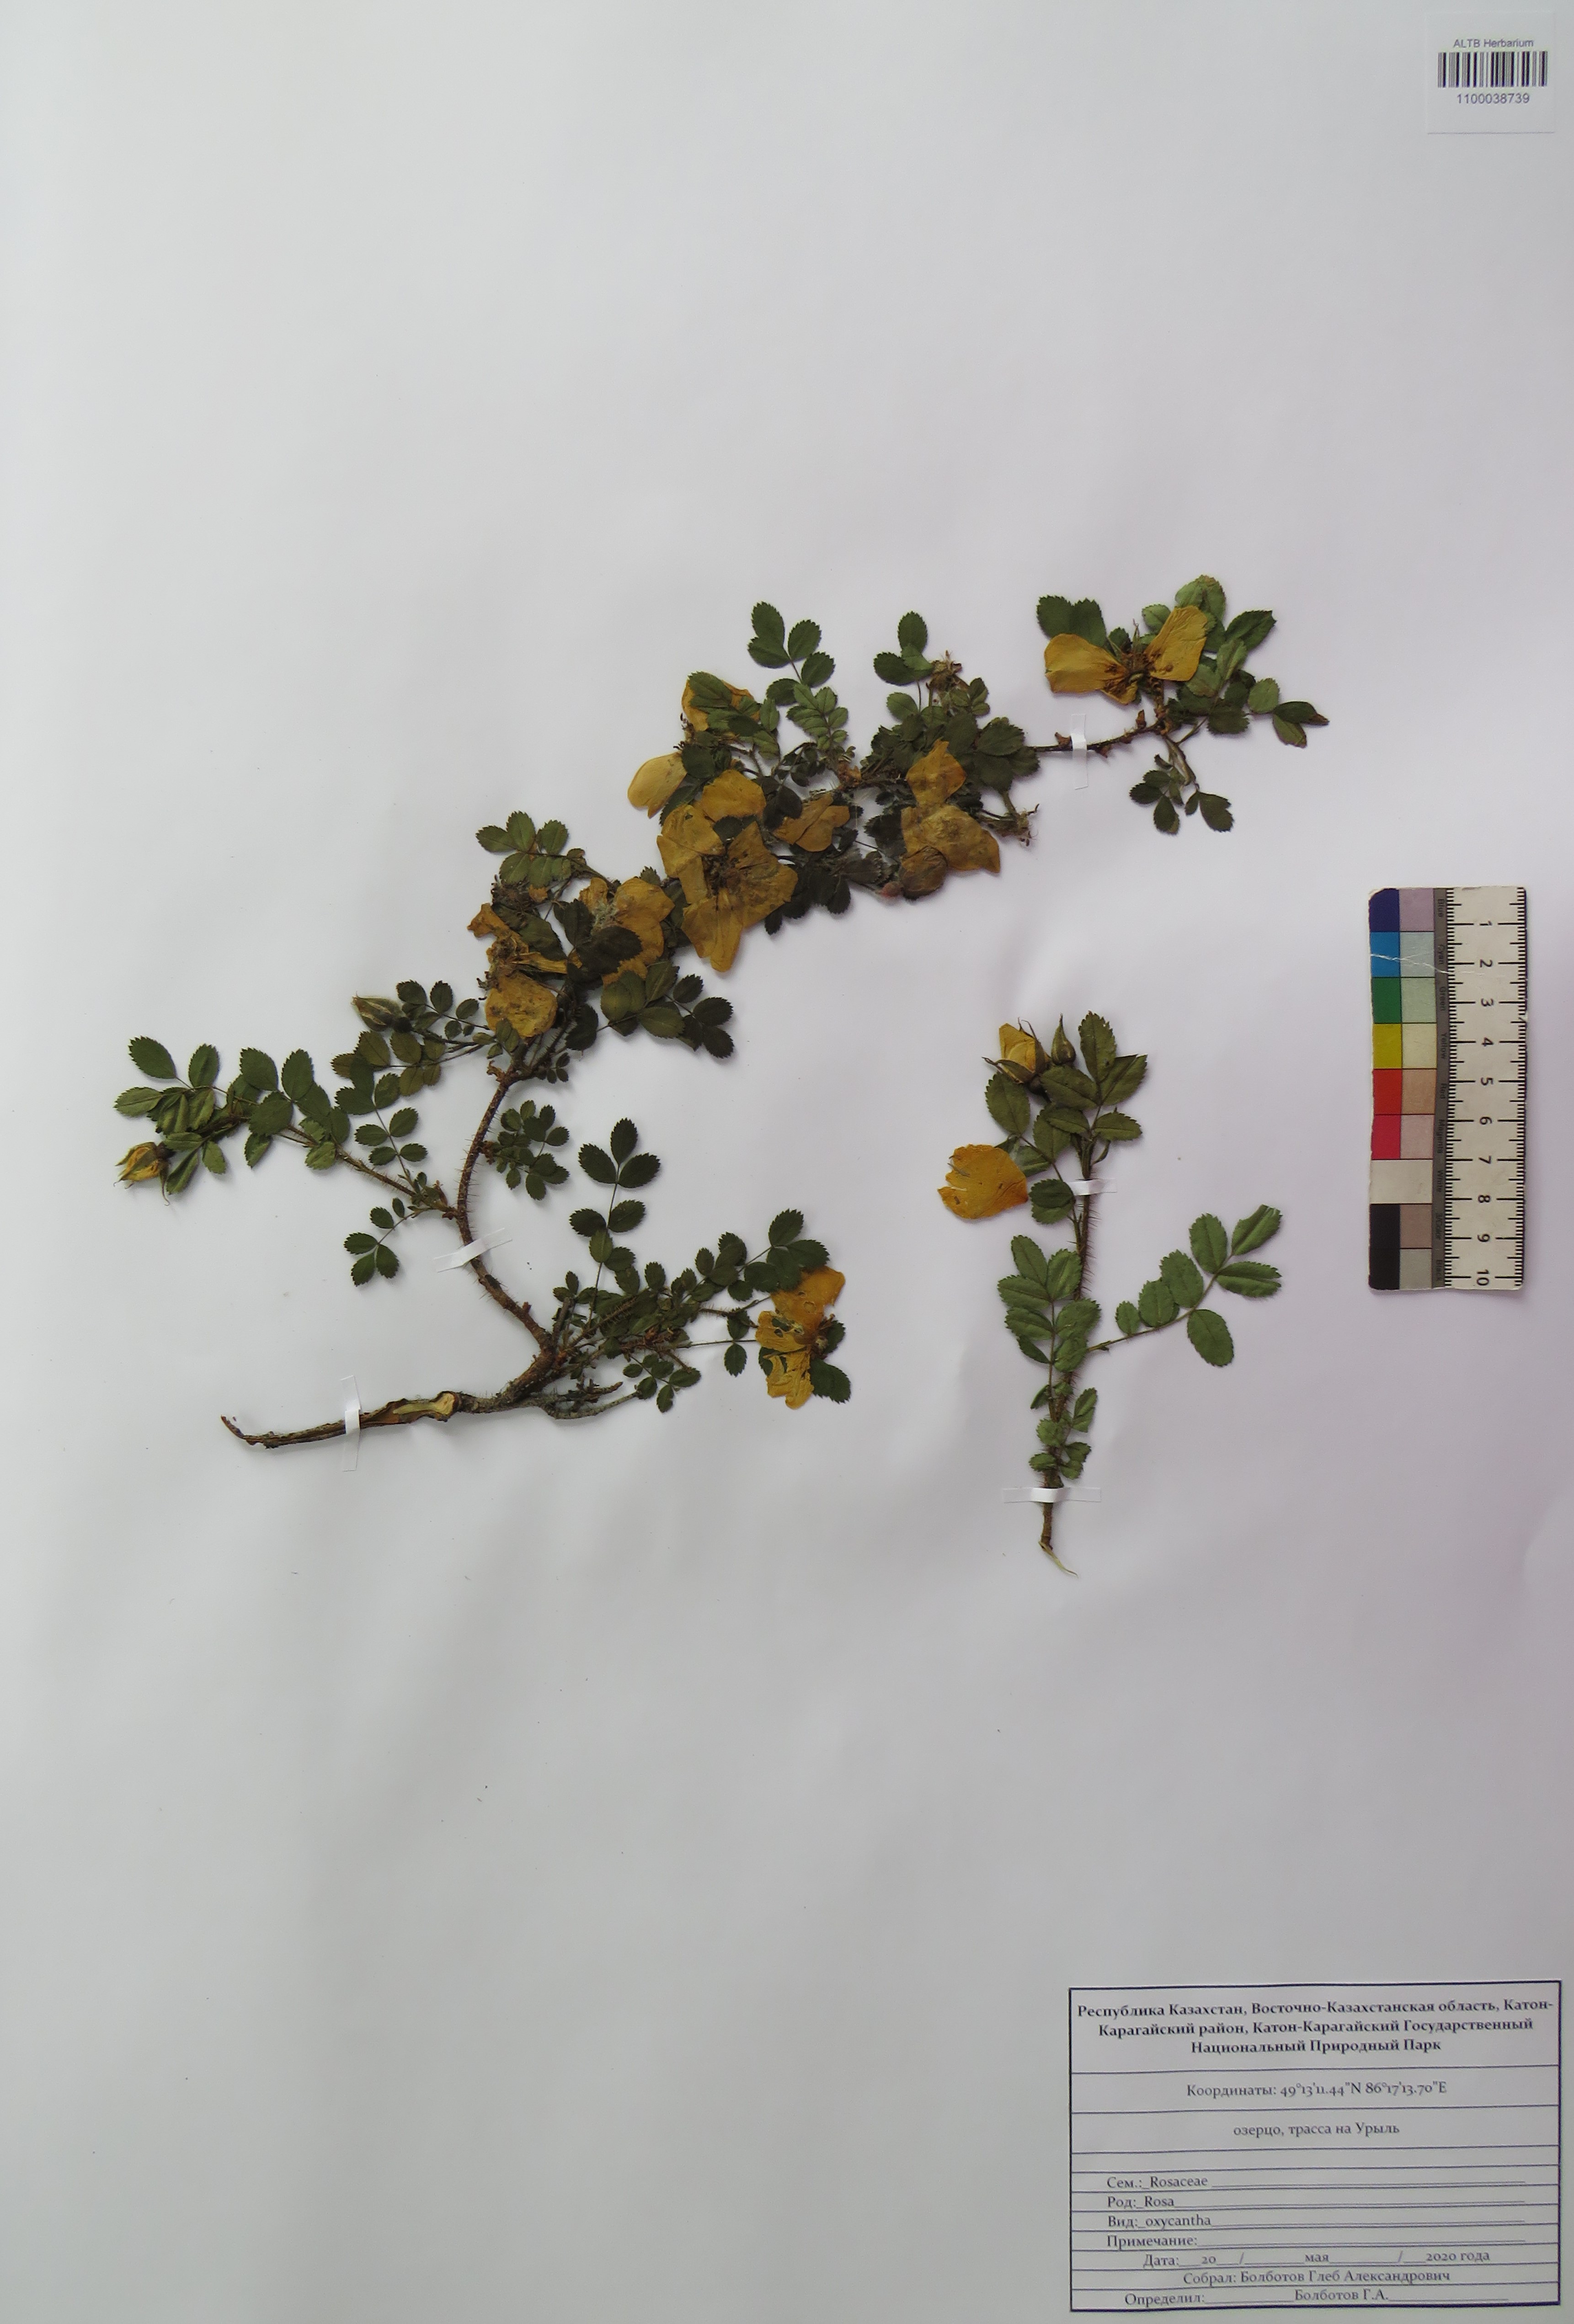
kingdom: Plantae
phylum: Tracheophyta
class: Magnoliopsida
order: Rosales
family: Rosaceae
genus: Rosa
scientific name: Rosa oxyacantha
